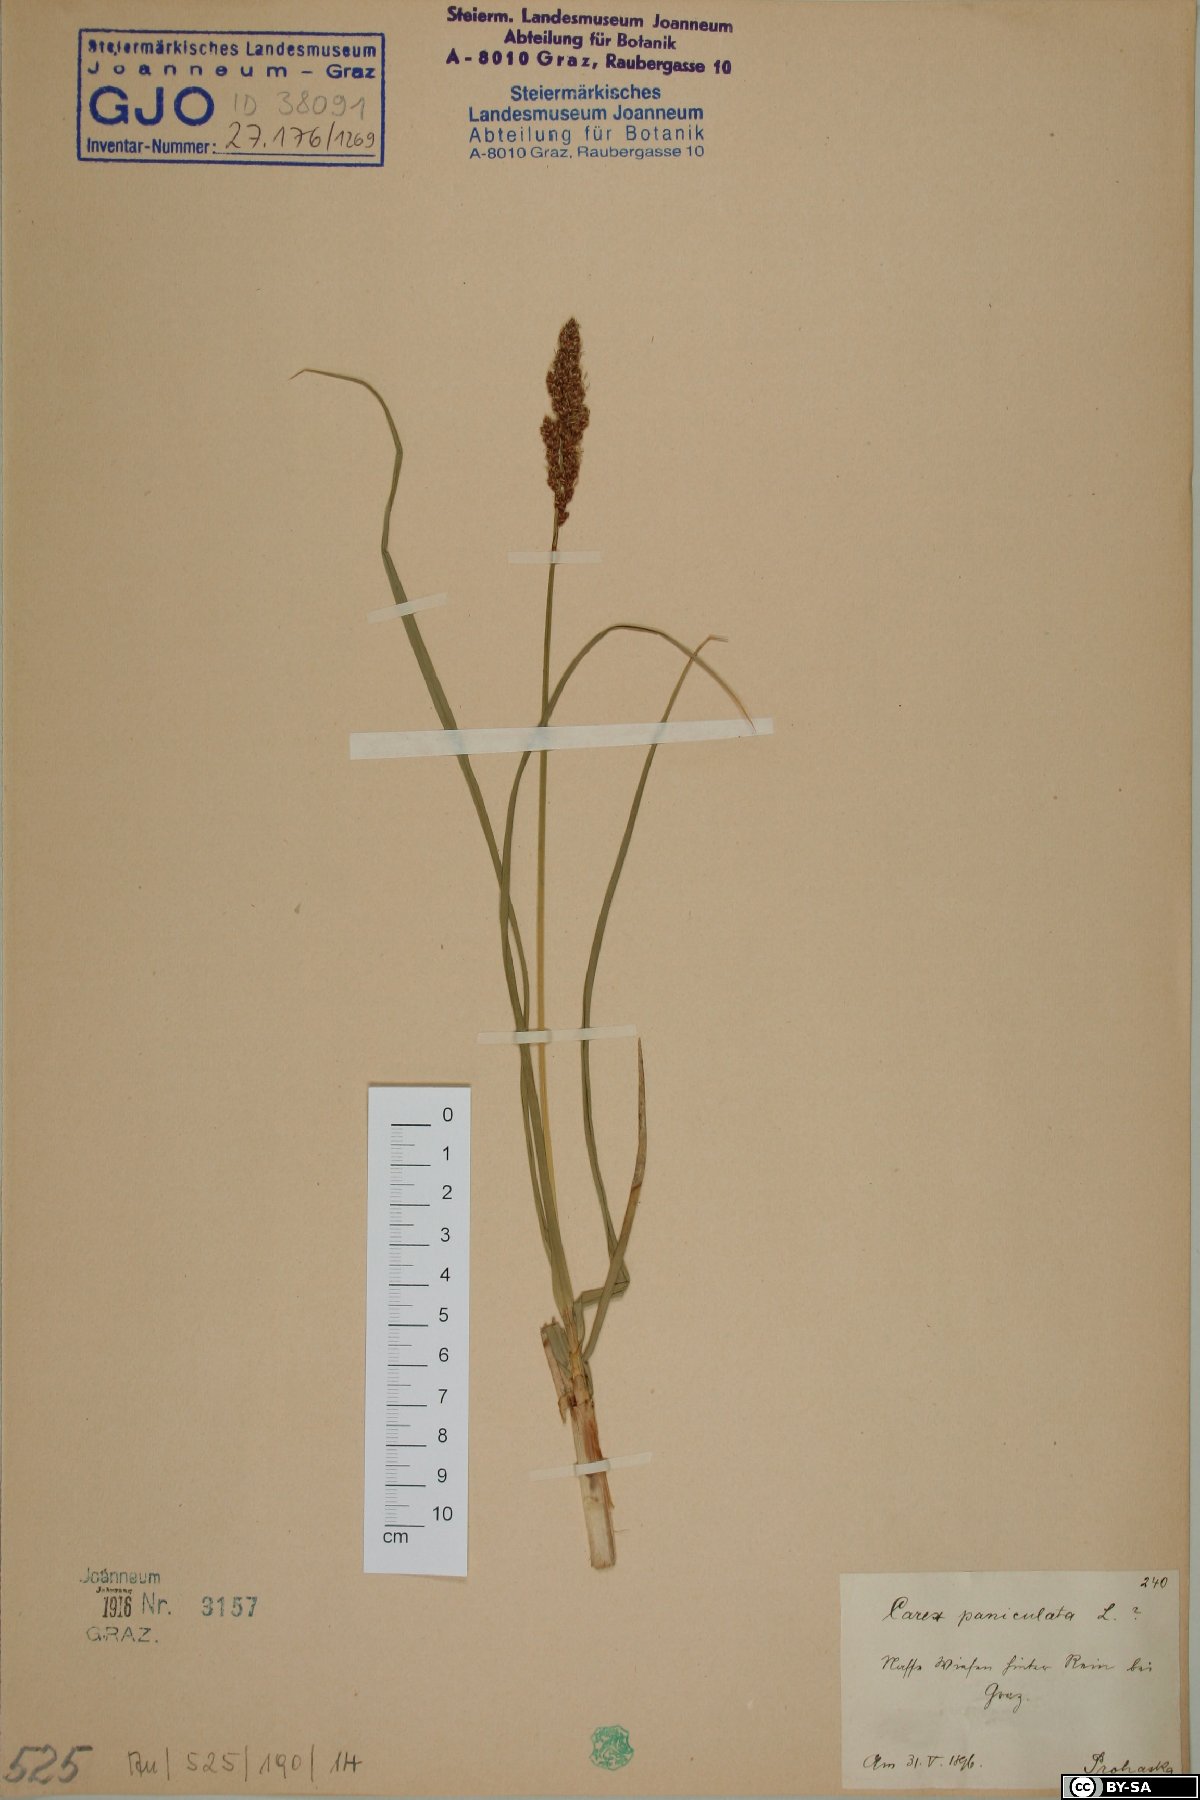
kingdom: Plantae
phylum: Tracheophyta
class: Liliopsida
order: Poales
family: Cyperaceae
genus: Carex
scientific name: Carex paniculata
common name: Greater tussock-sedge
